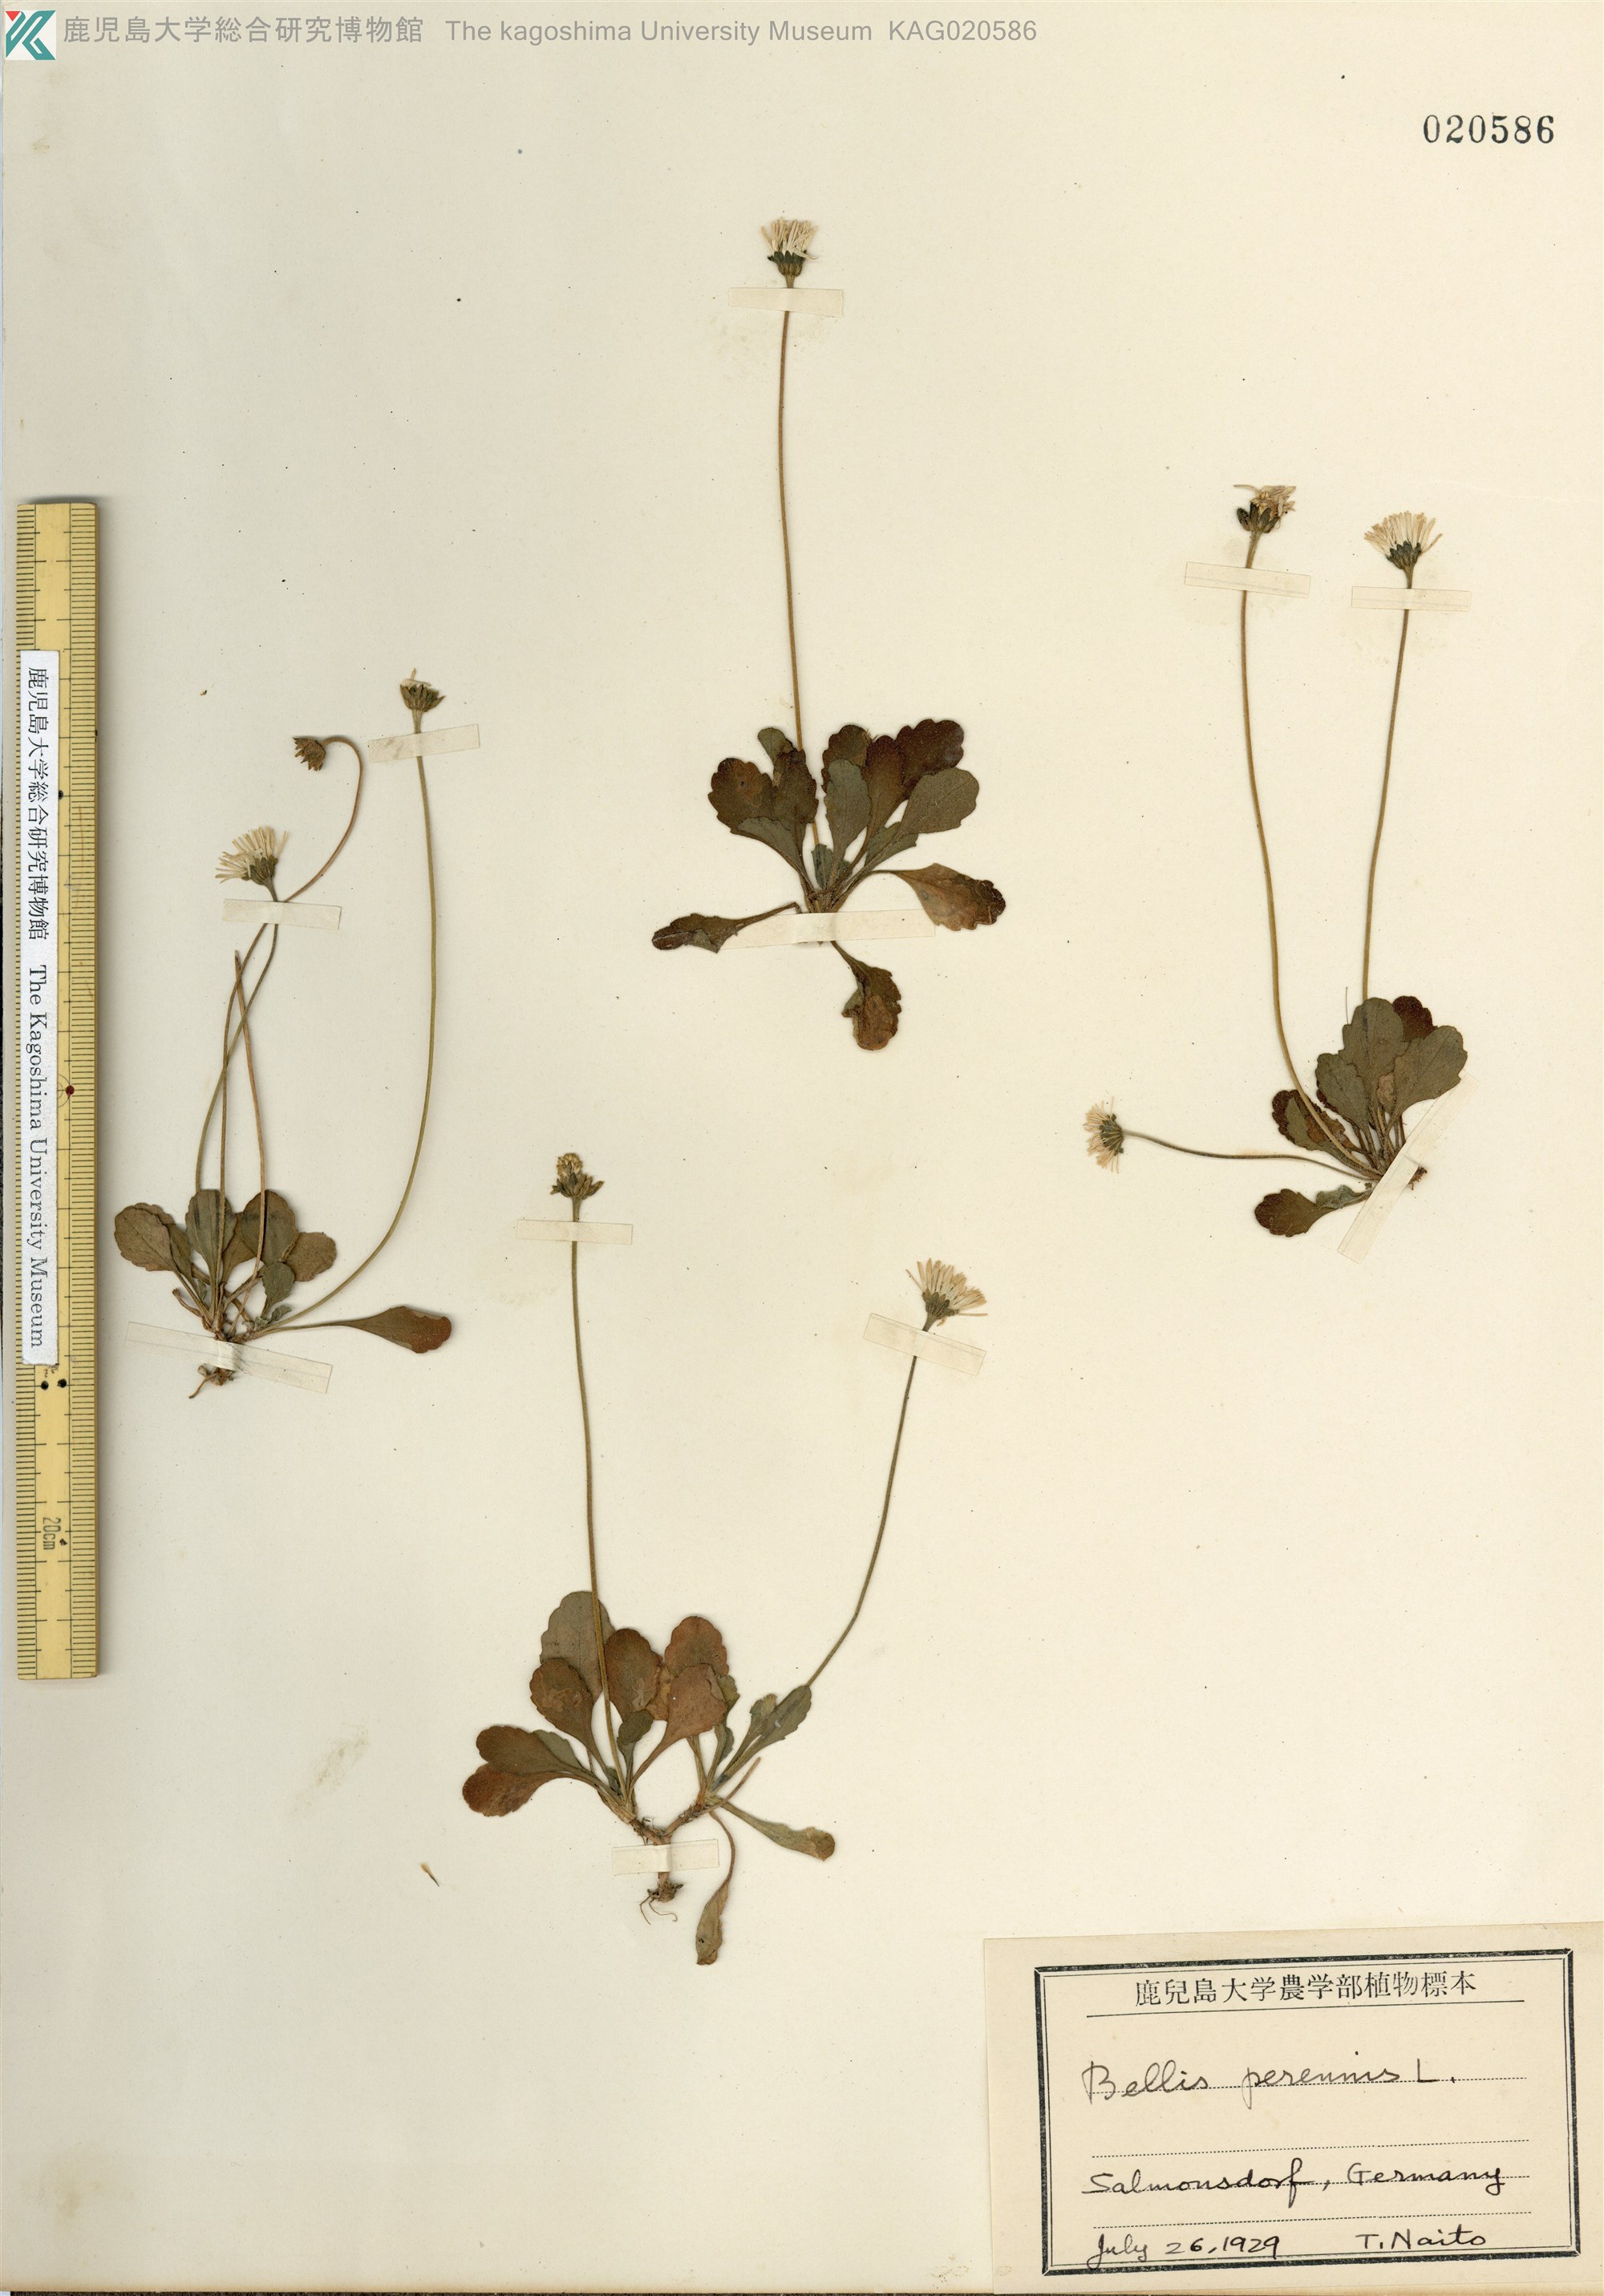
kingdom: Plantae
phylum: Tracheophyta
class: Magnoliopsida
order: Asterales
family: Asteraceae
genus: Bellis
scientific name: Bellis perennis
